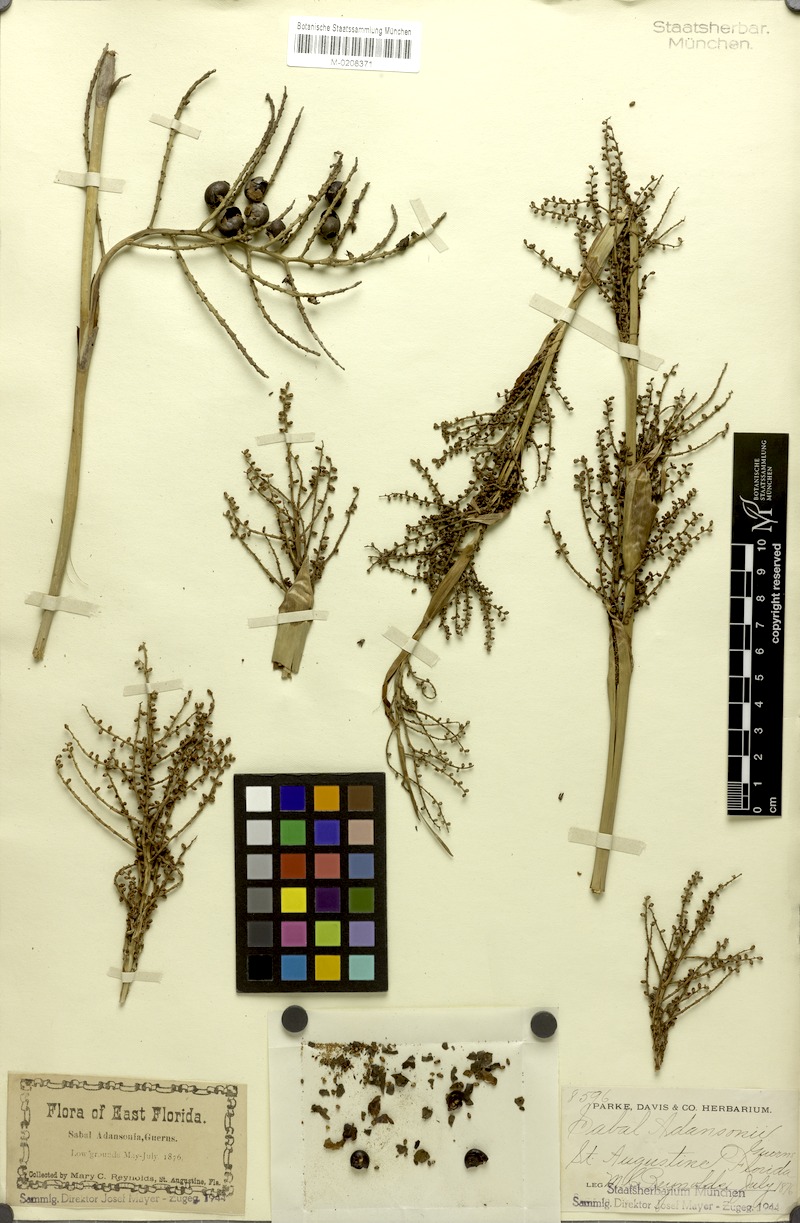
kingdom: Plantae
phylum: Tracheophyta
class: Liliopsida
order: Arecales
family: Arecaceae
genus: Sabal
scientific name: Sabal minor
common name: Dwarf palmetto
